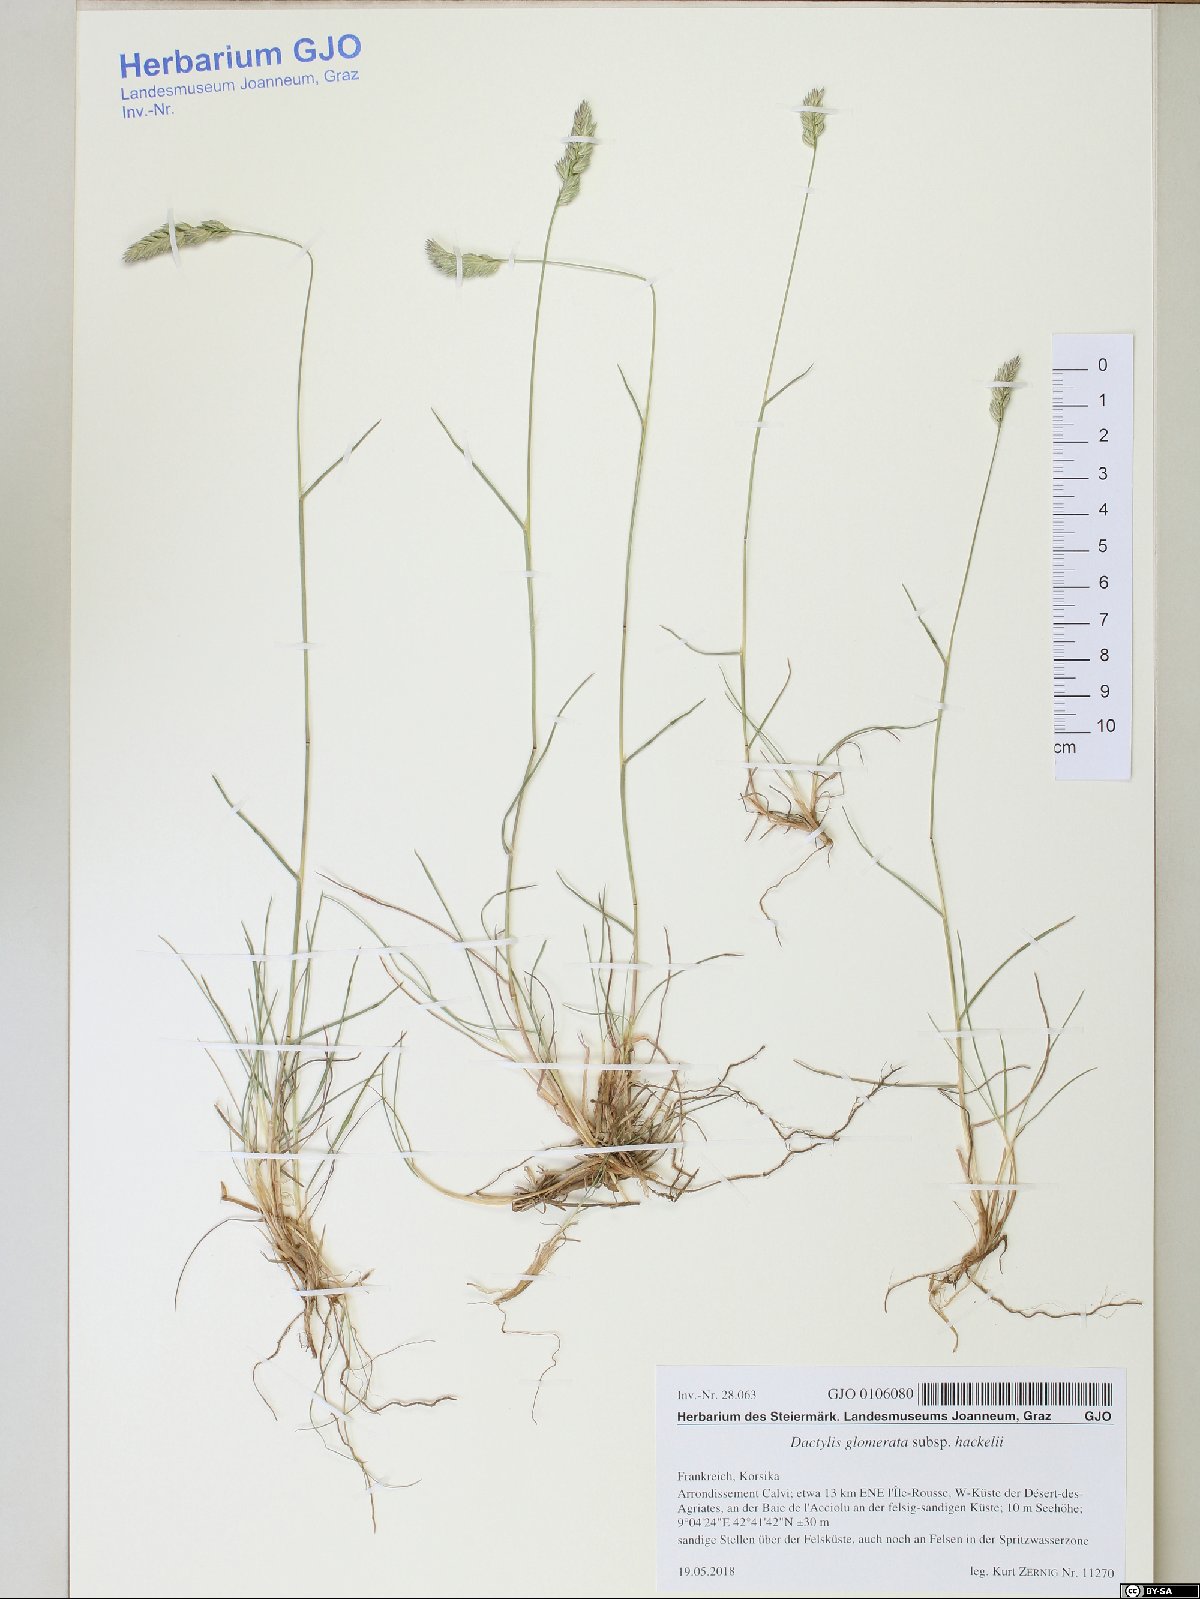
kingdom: Plantae
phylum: Tracheophyta
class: Liliopsida
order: Poales
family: Poaceae
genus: Dactylis
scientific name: Dactylis glomerata
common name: Orchardgrass
